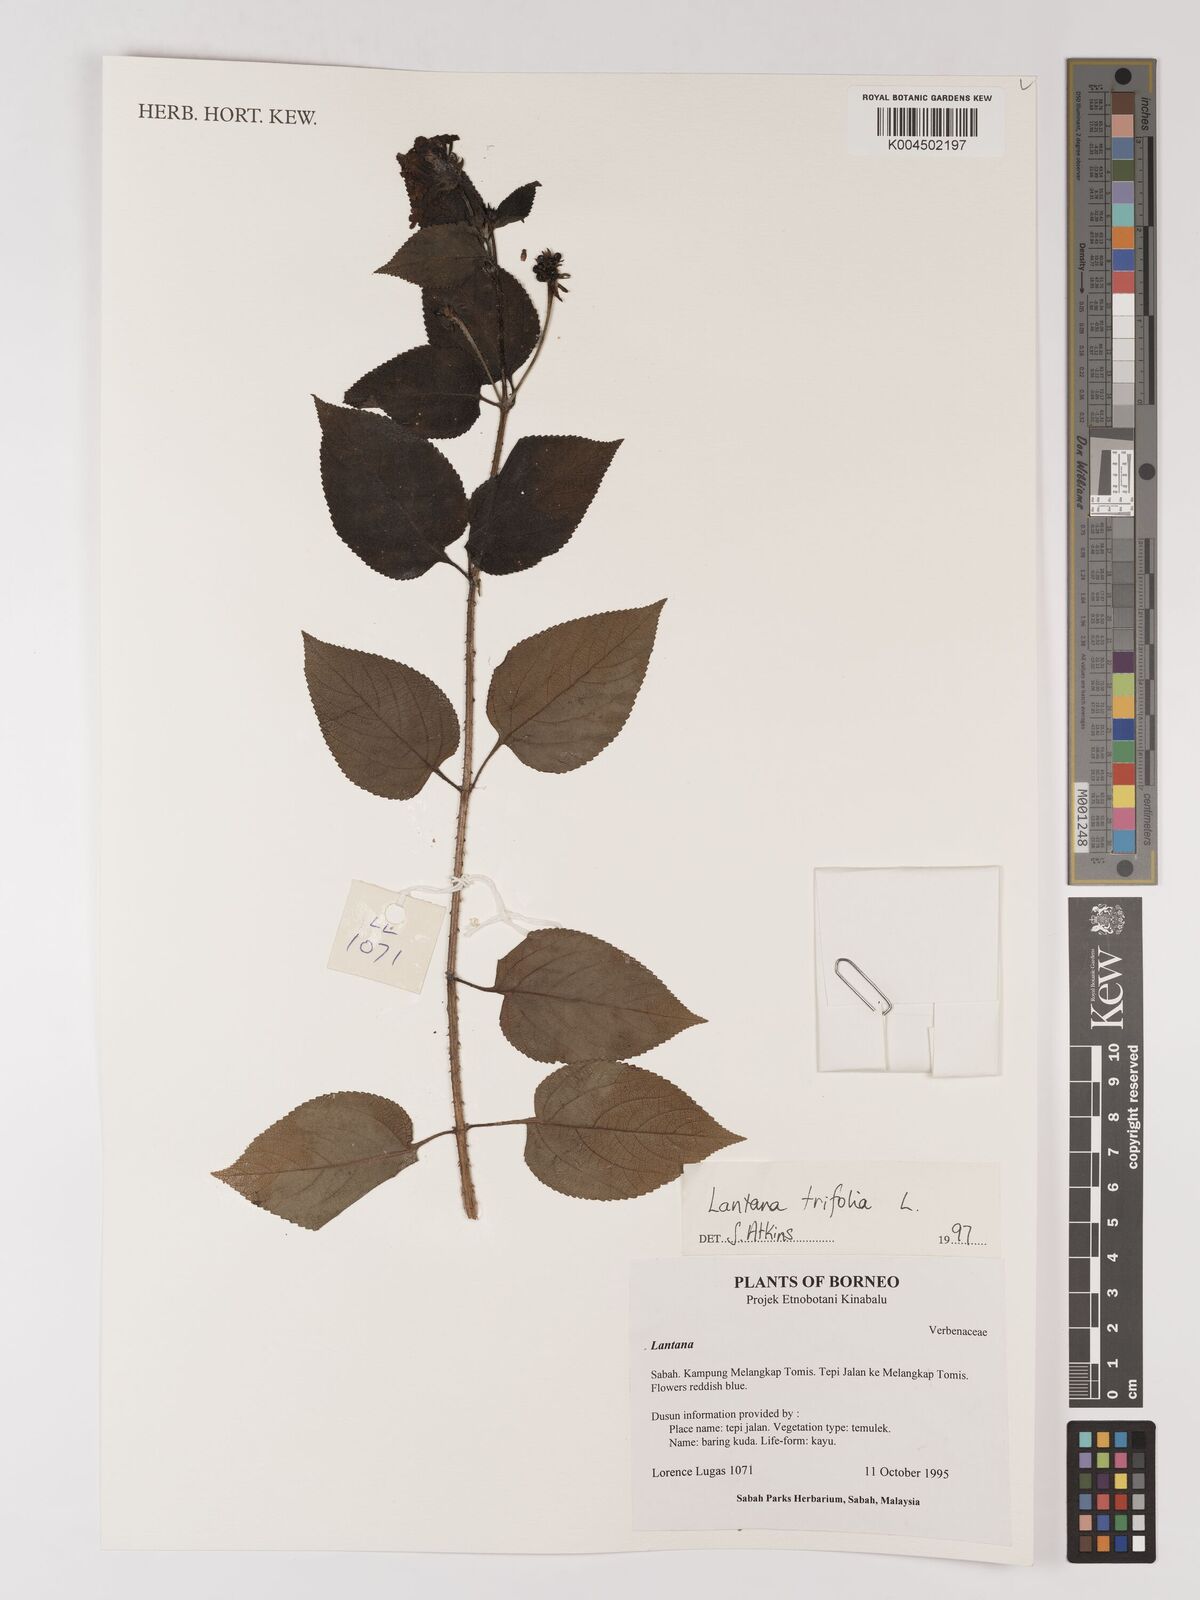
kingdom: Plantae
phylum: Tracheophyta
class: Magnoliopsida
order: Lamiales
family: Verbenaceae
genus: Lantana
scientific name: Lantana trifolia
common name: Sweet-sage
